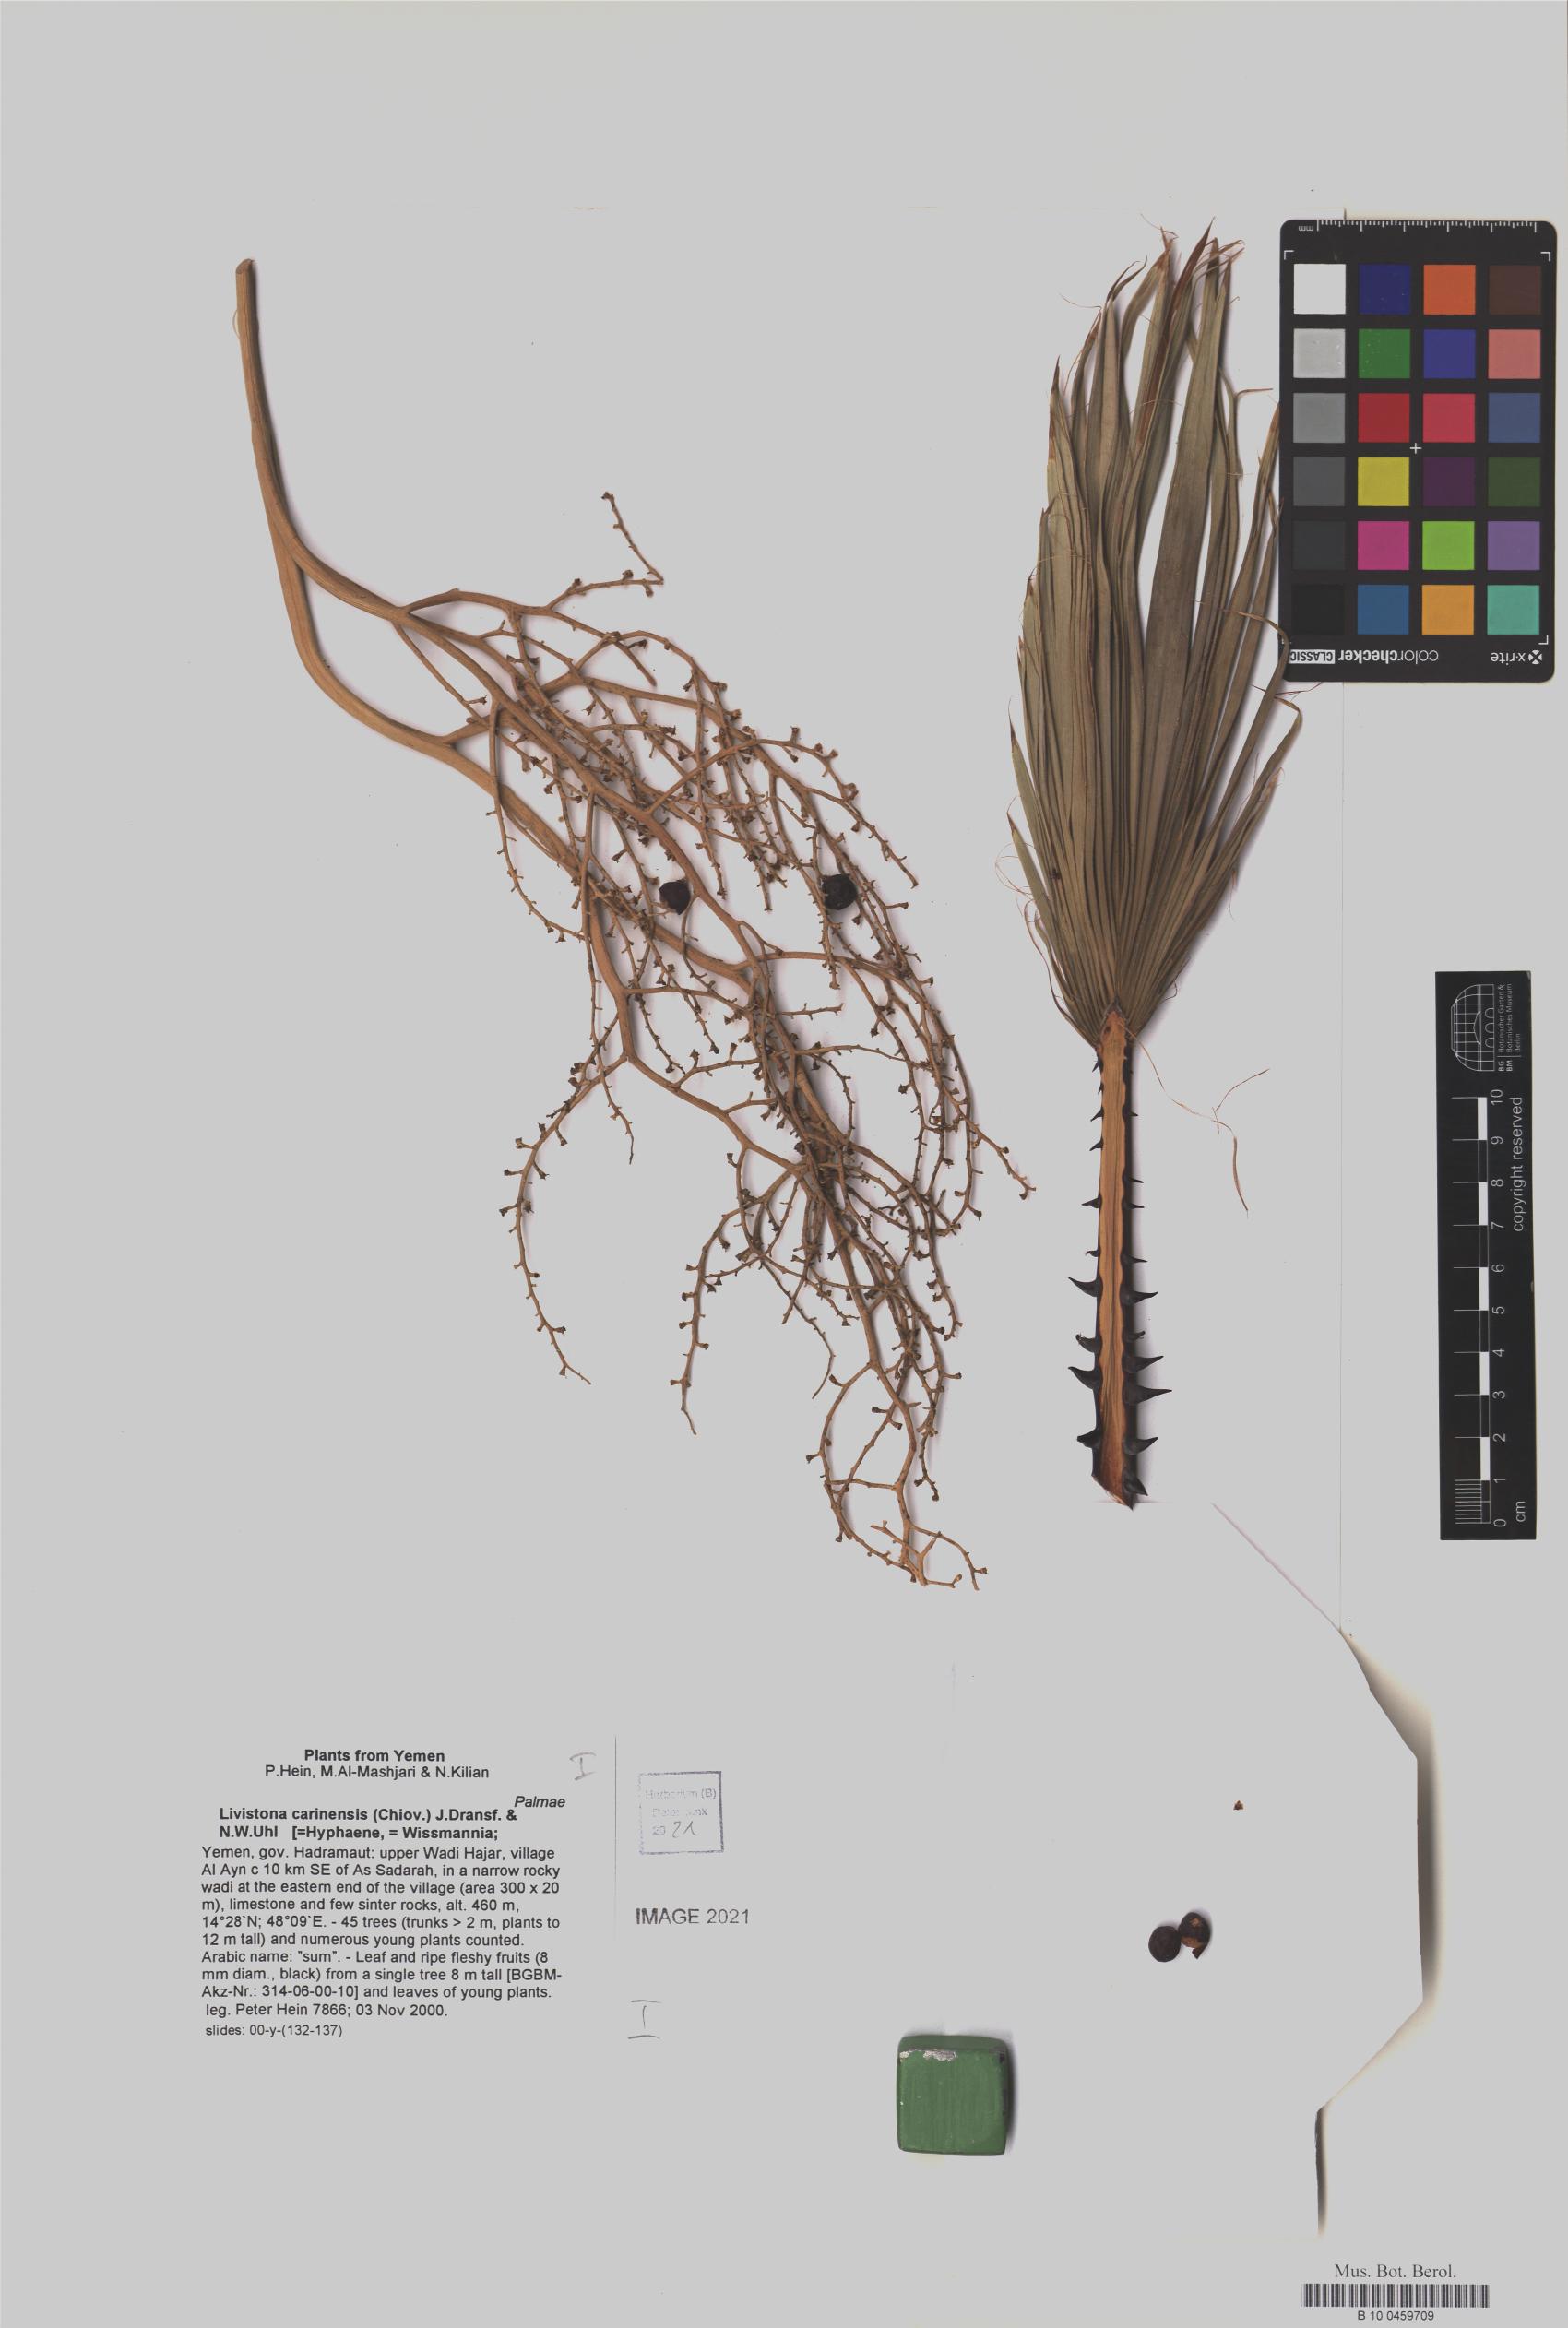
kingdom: Plantae
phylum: Tracheophyta
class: Liliopsida
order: Arecales
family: Arecaceae
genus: Livistona
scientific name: Livistona carinensis
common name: Bankoualé palm
